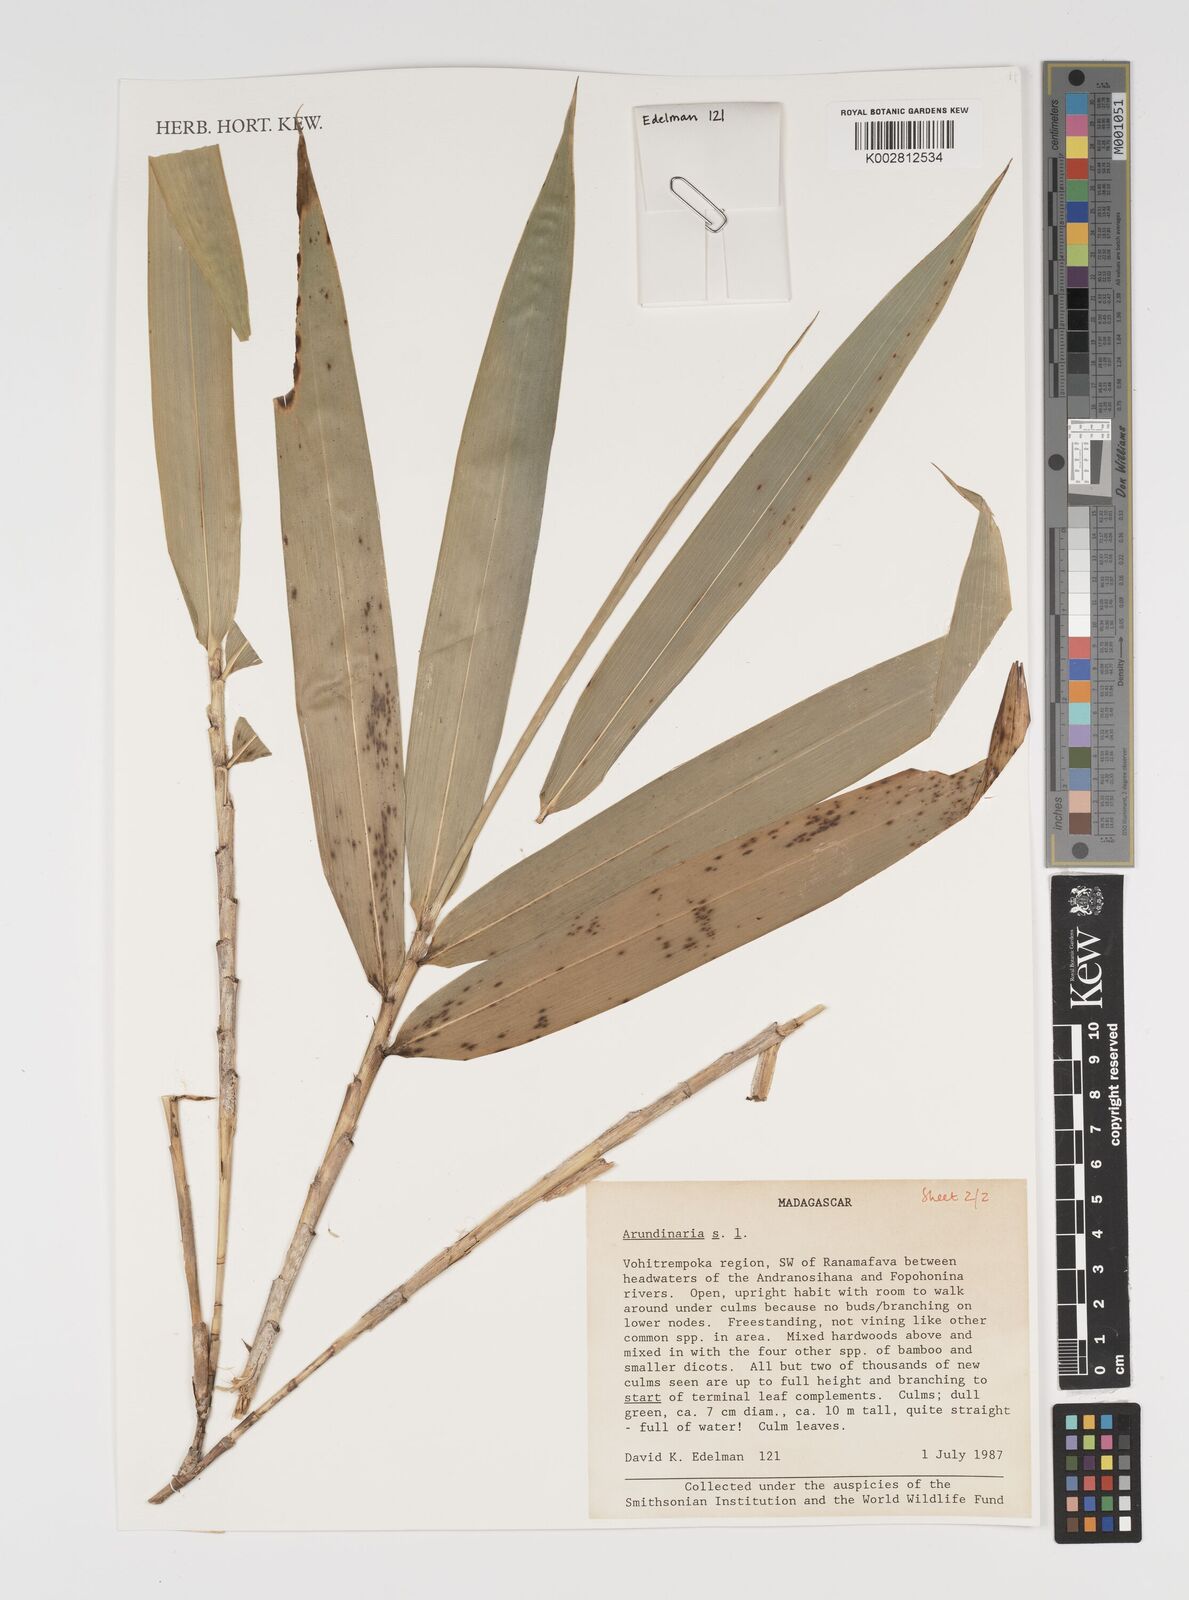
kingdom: Plantae
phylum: Tracheophyta
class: Liliopsida
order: Poales
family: Poaceae
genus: Arundinaria
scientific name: Arundinaria
